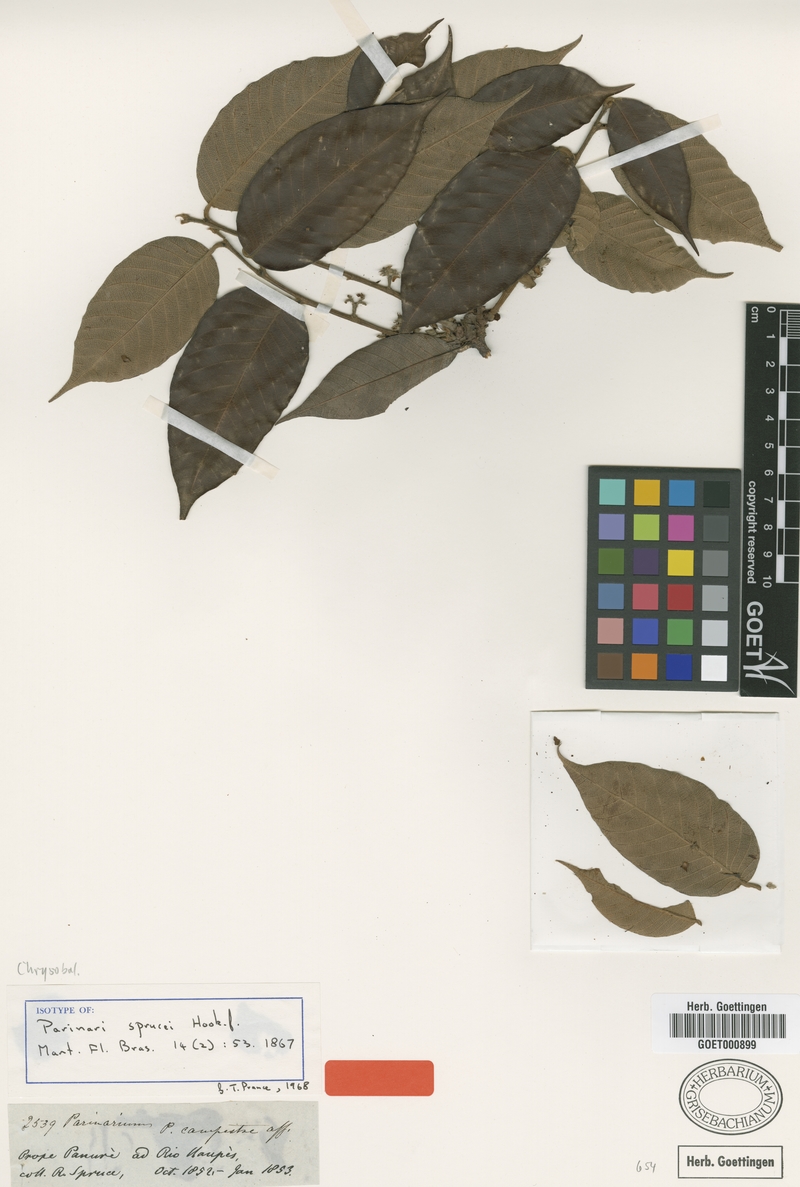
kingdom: Plantae
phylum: Tracheophyta
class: Magnoliopsida
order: Malpighiales
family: Chrysobalanaceae
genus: Parinari
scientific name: Parinari sprucei
